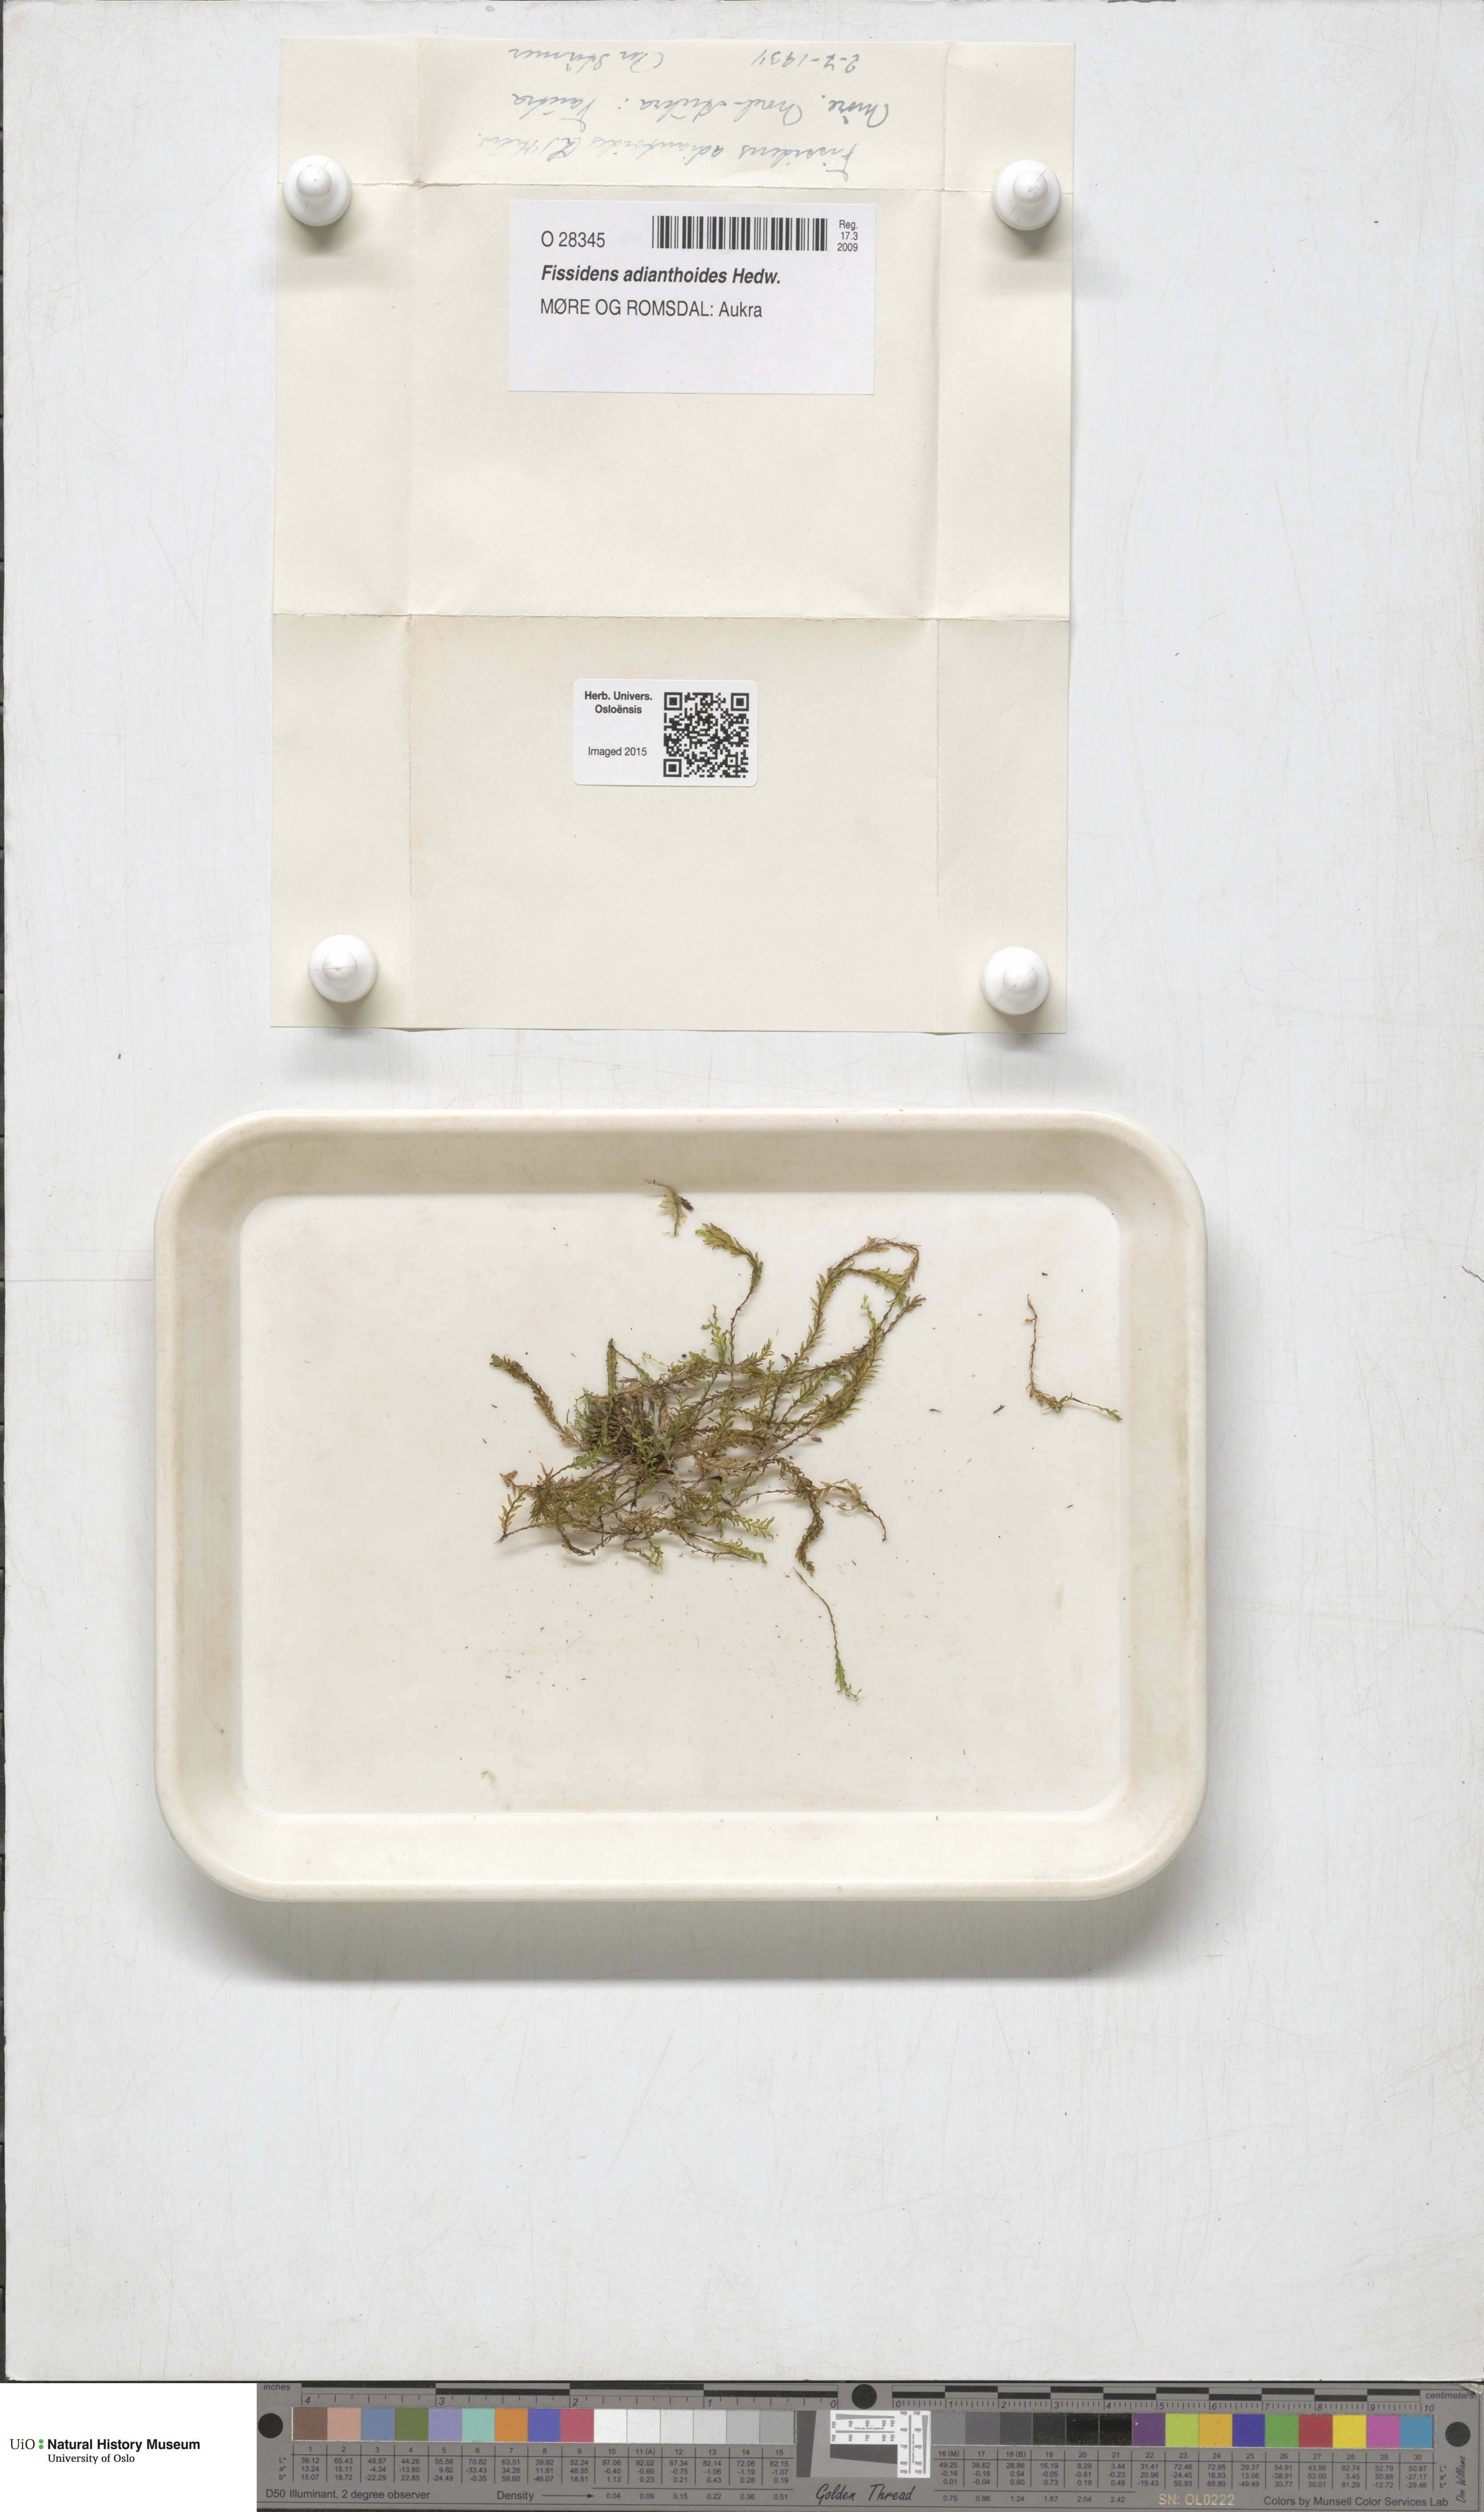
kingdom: Plantae
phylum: Bryophyta
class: Bryopsida
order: Dicranales
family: Fissidentaceae
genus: Fissidens
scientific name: Fissidens adianthoides
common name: Maidenhair pocket moss
